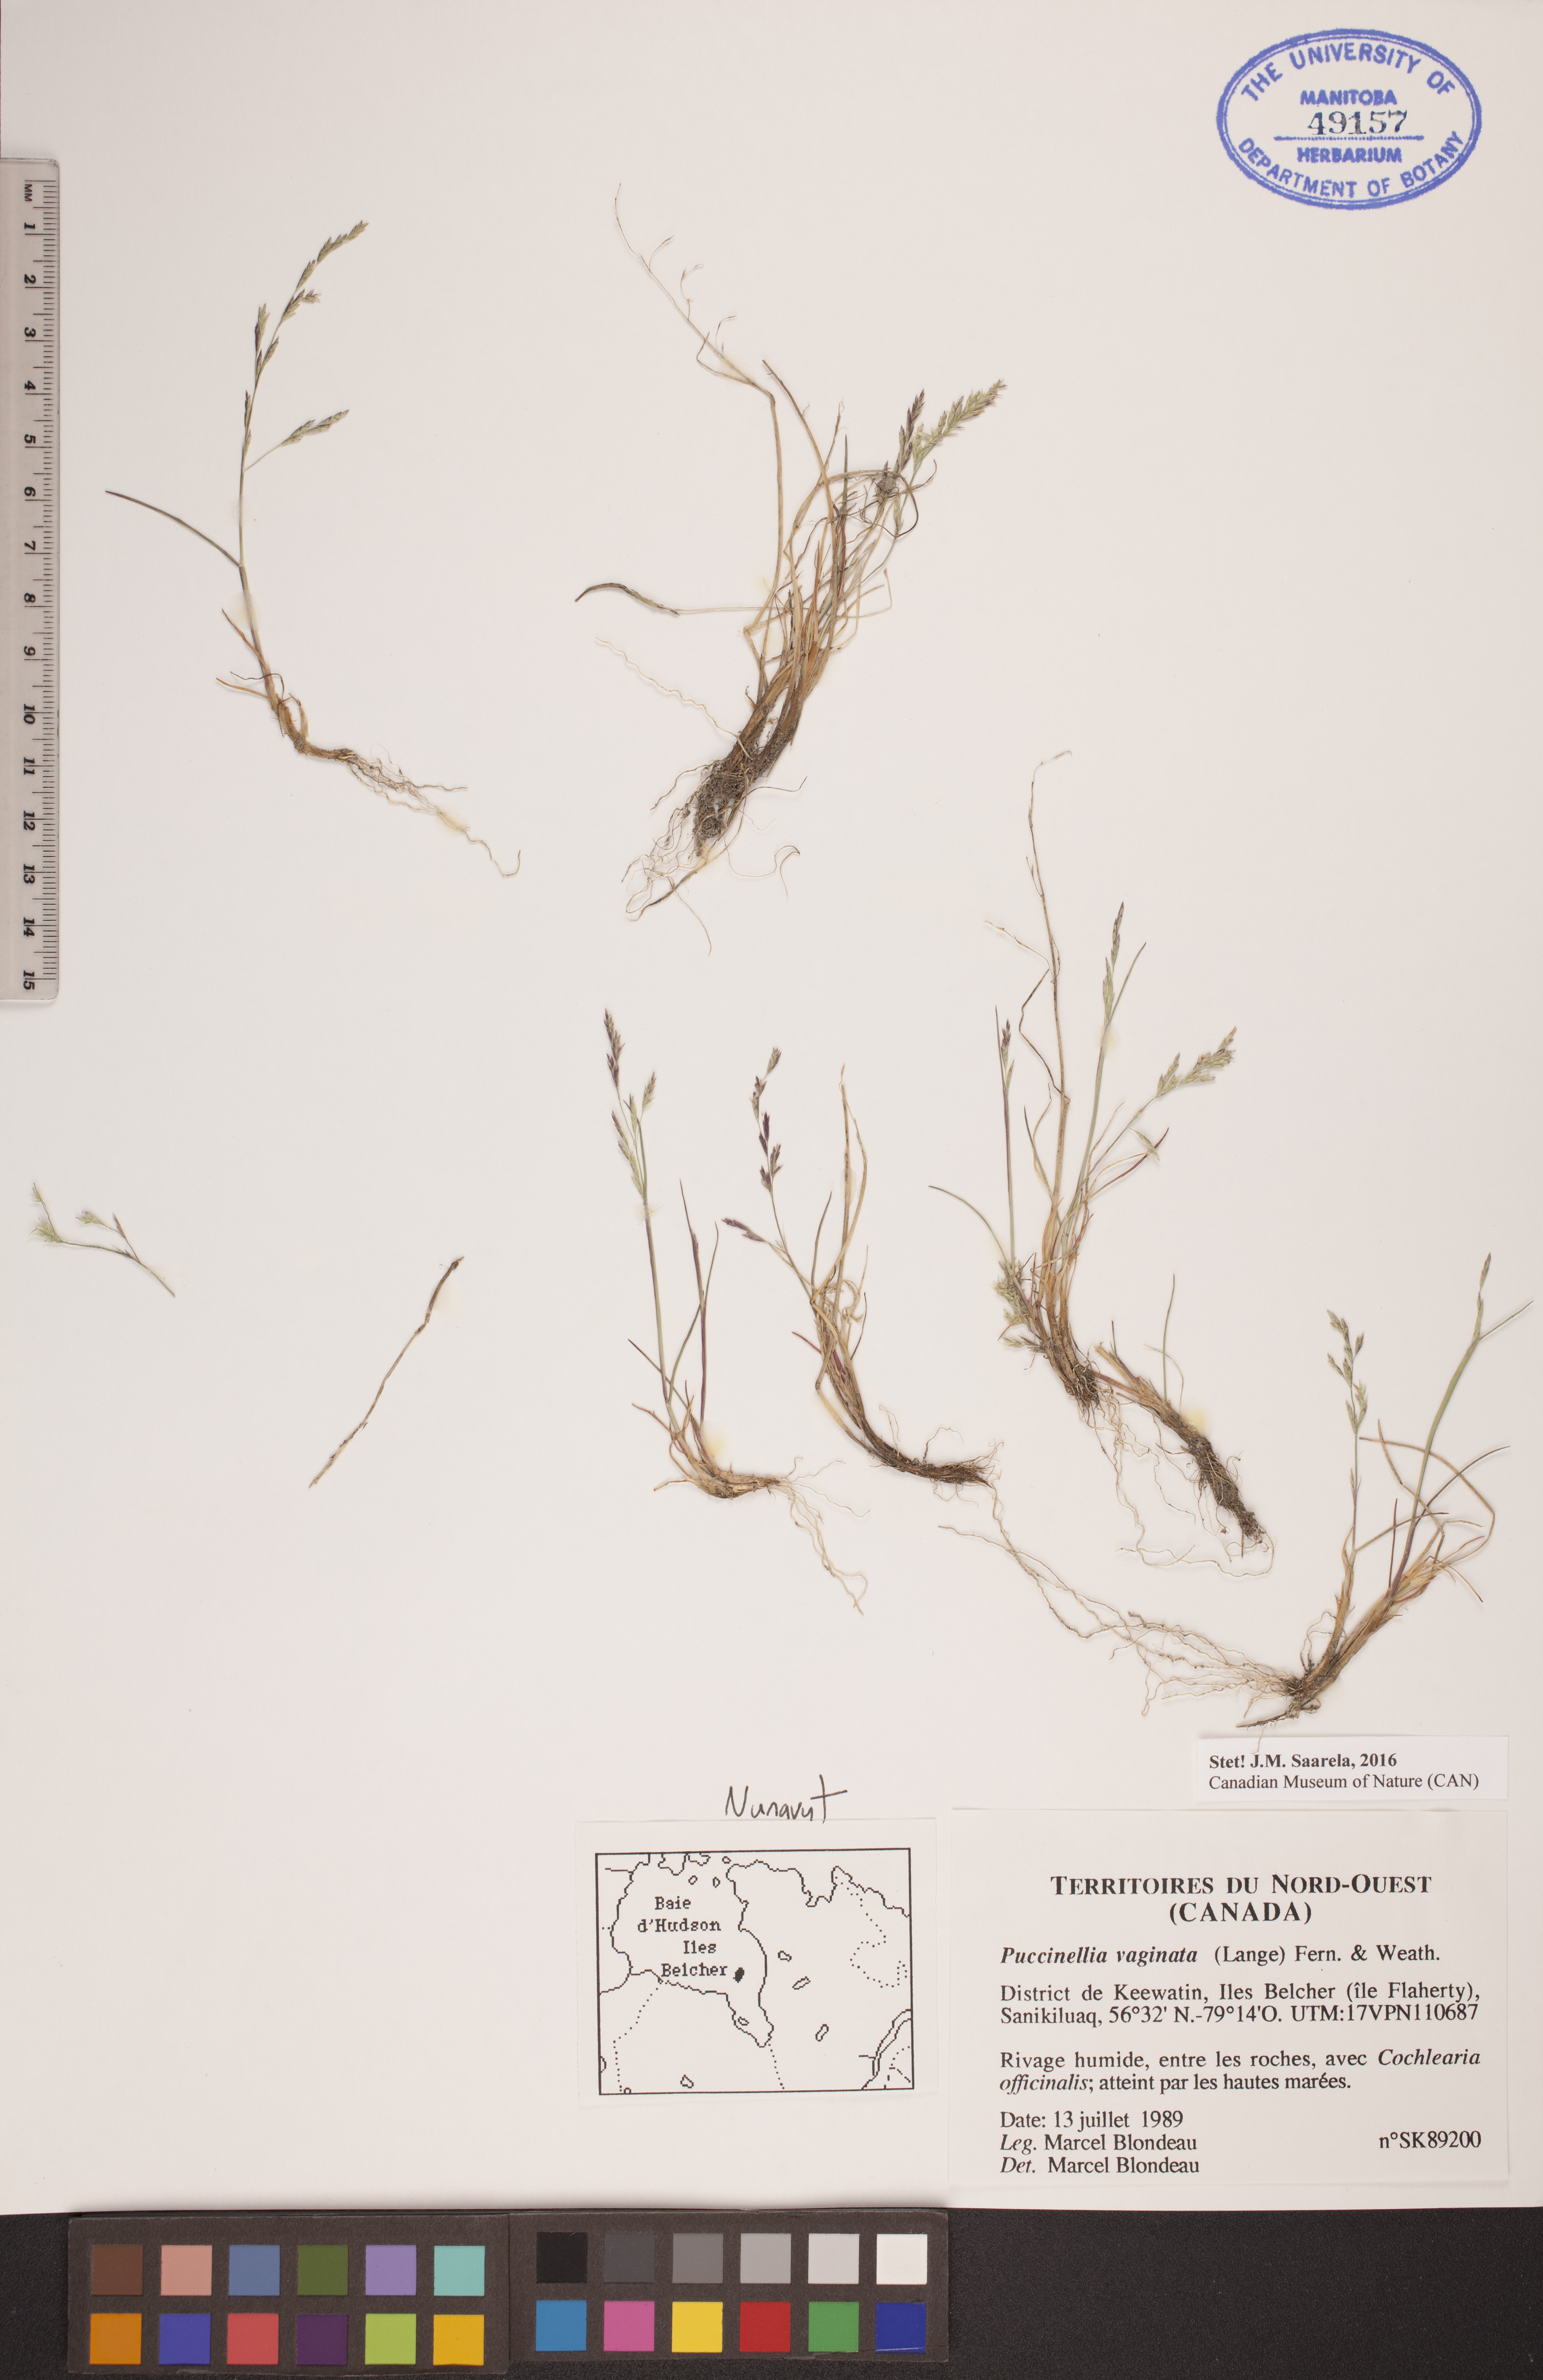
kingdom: Plantae
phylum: Tracheophyta
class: Liliopsida
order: Poales
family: Poaceae
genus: Puccinellia
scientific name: Puccinellia vaginata
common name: Arctic tussock alkaligrass
